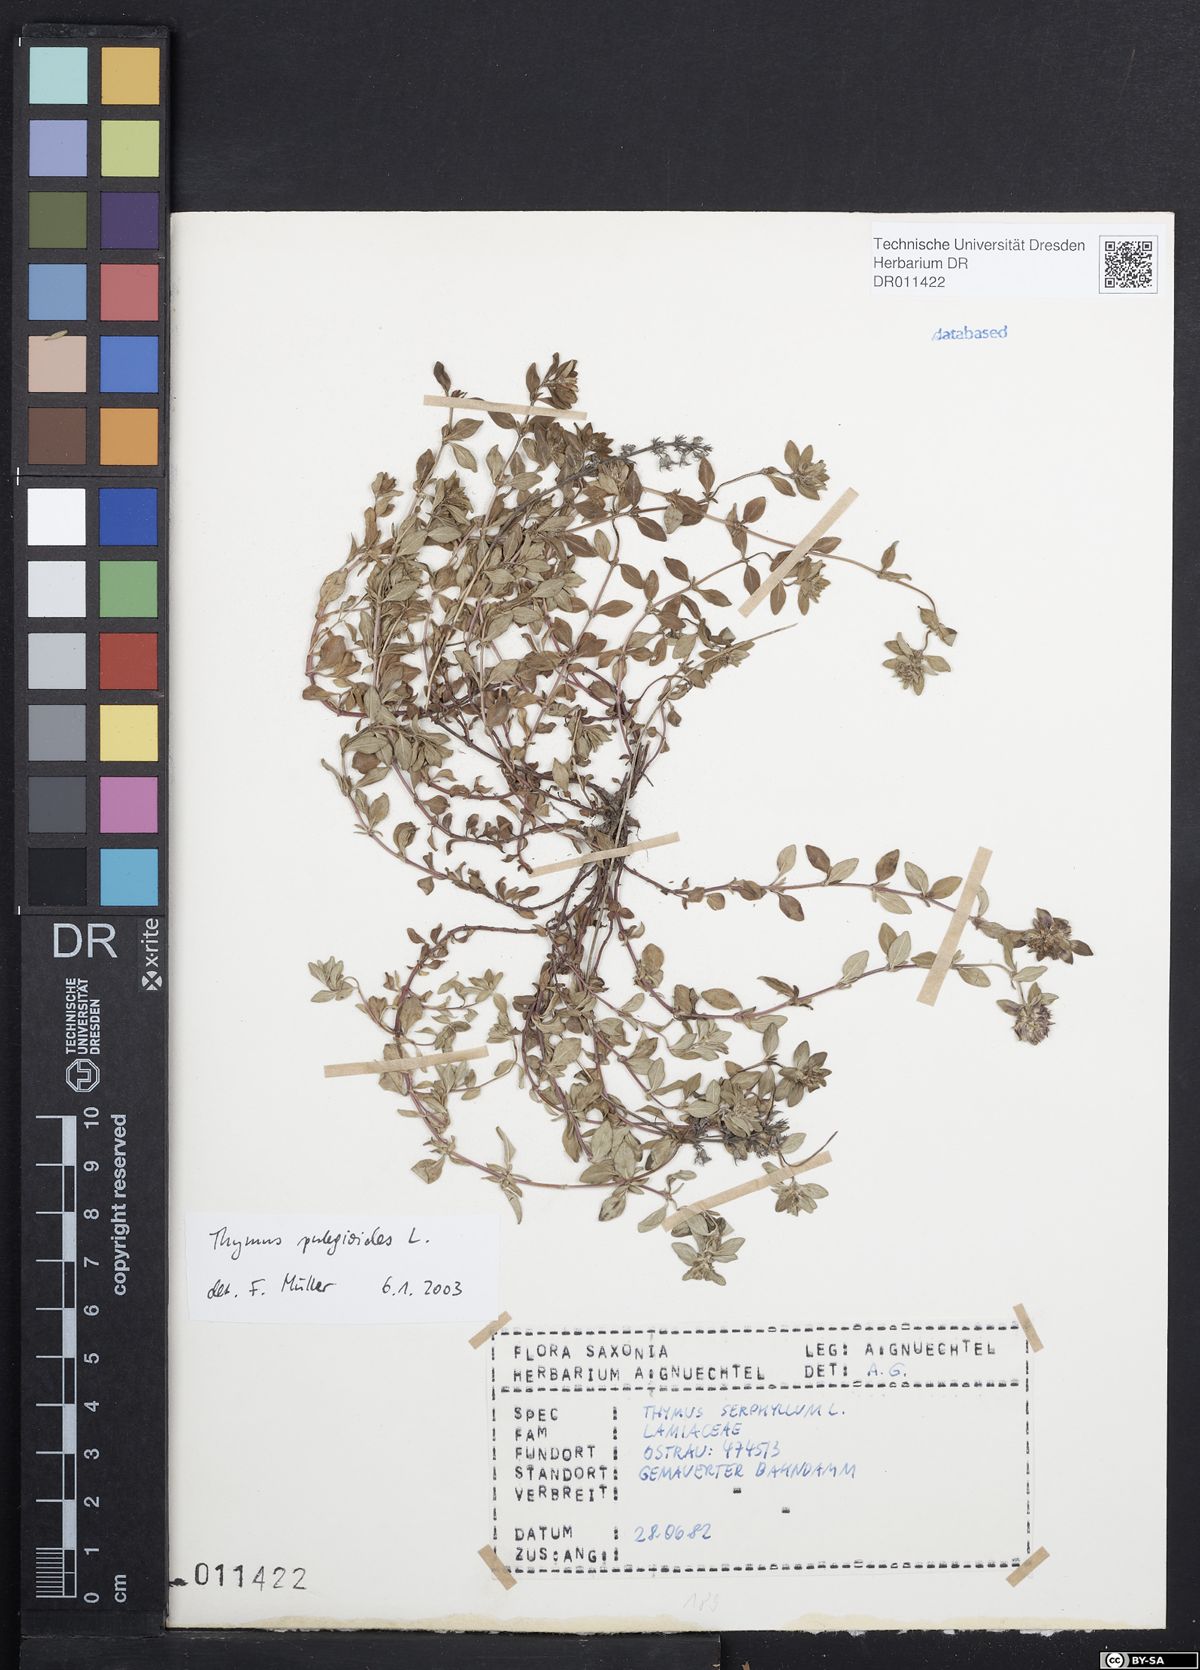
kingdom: Plantae
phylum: Tracheophyta
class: Magnoliopsida
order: Lamiales
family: Lamiaceae
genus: Thymus
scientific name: Thymus pulegioides
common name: Large thyme
